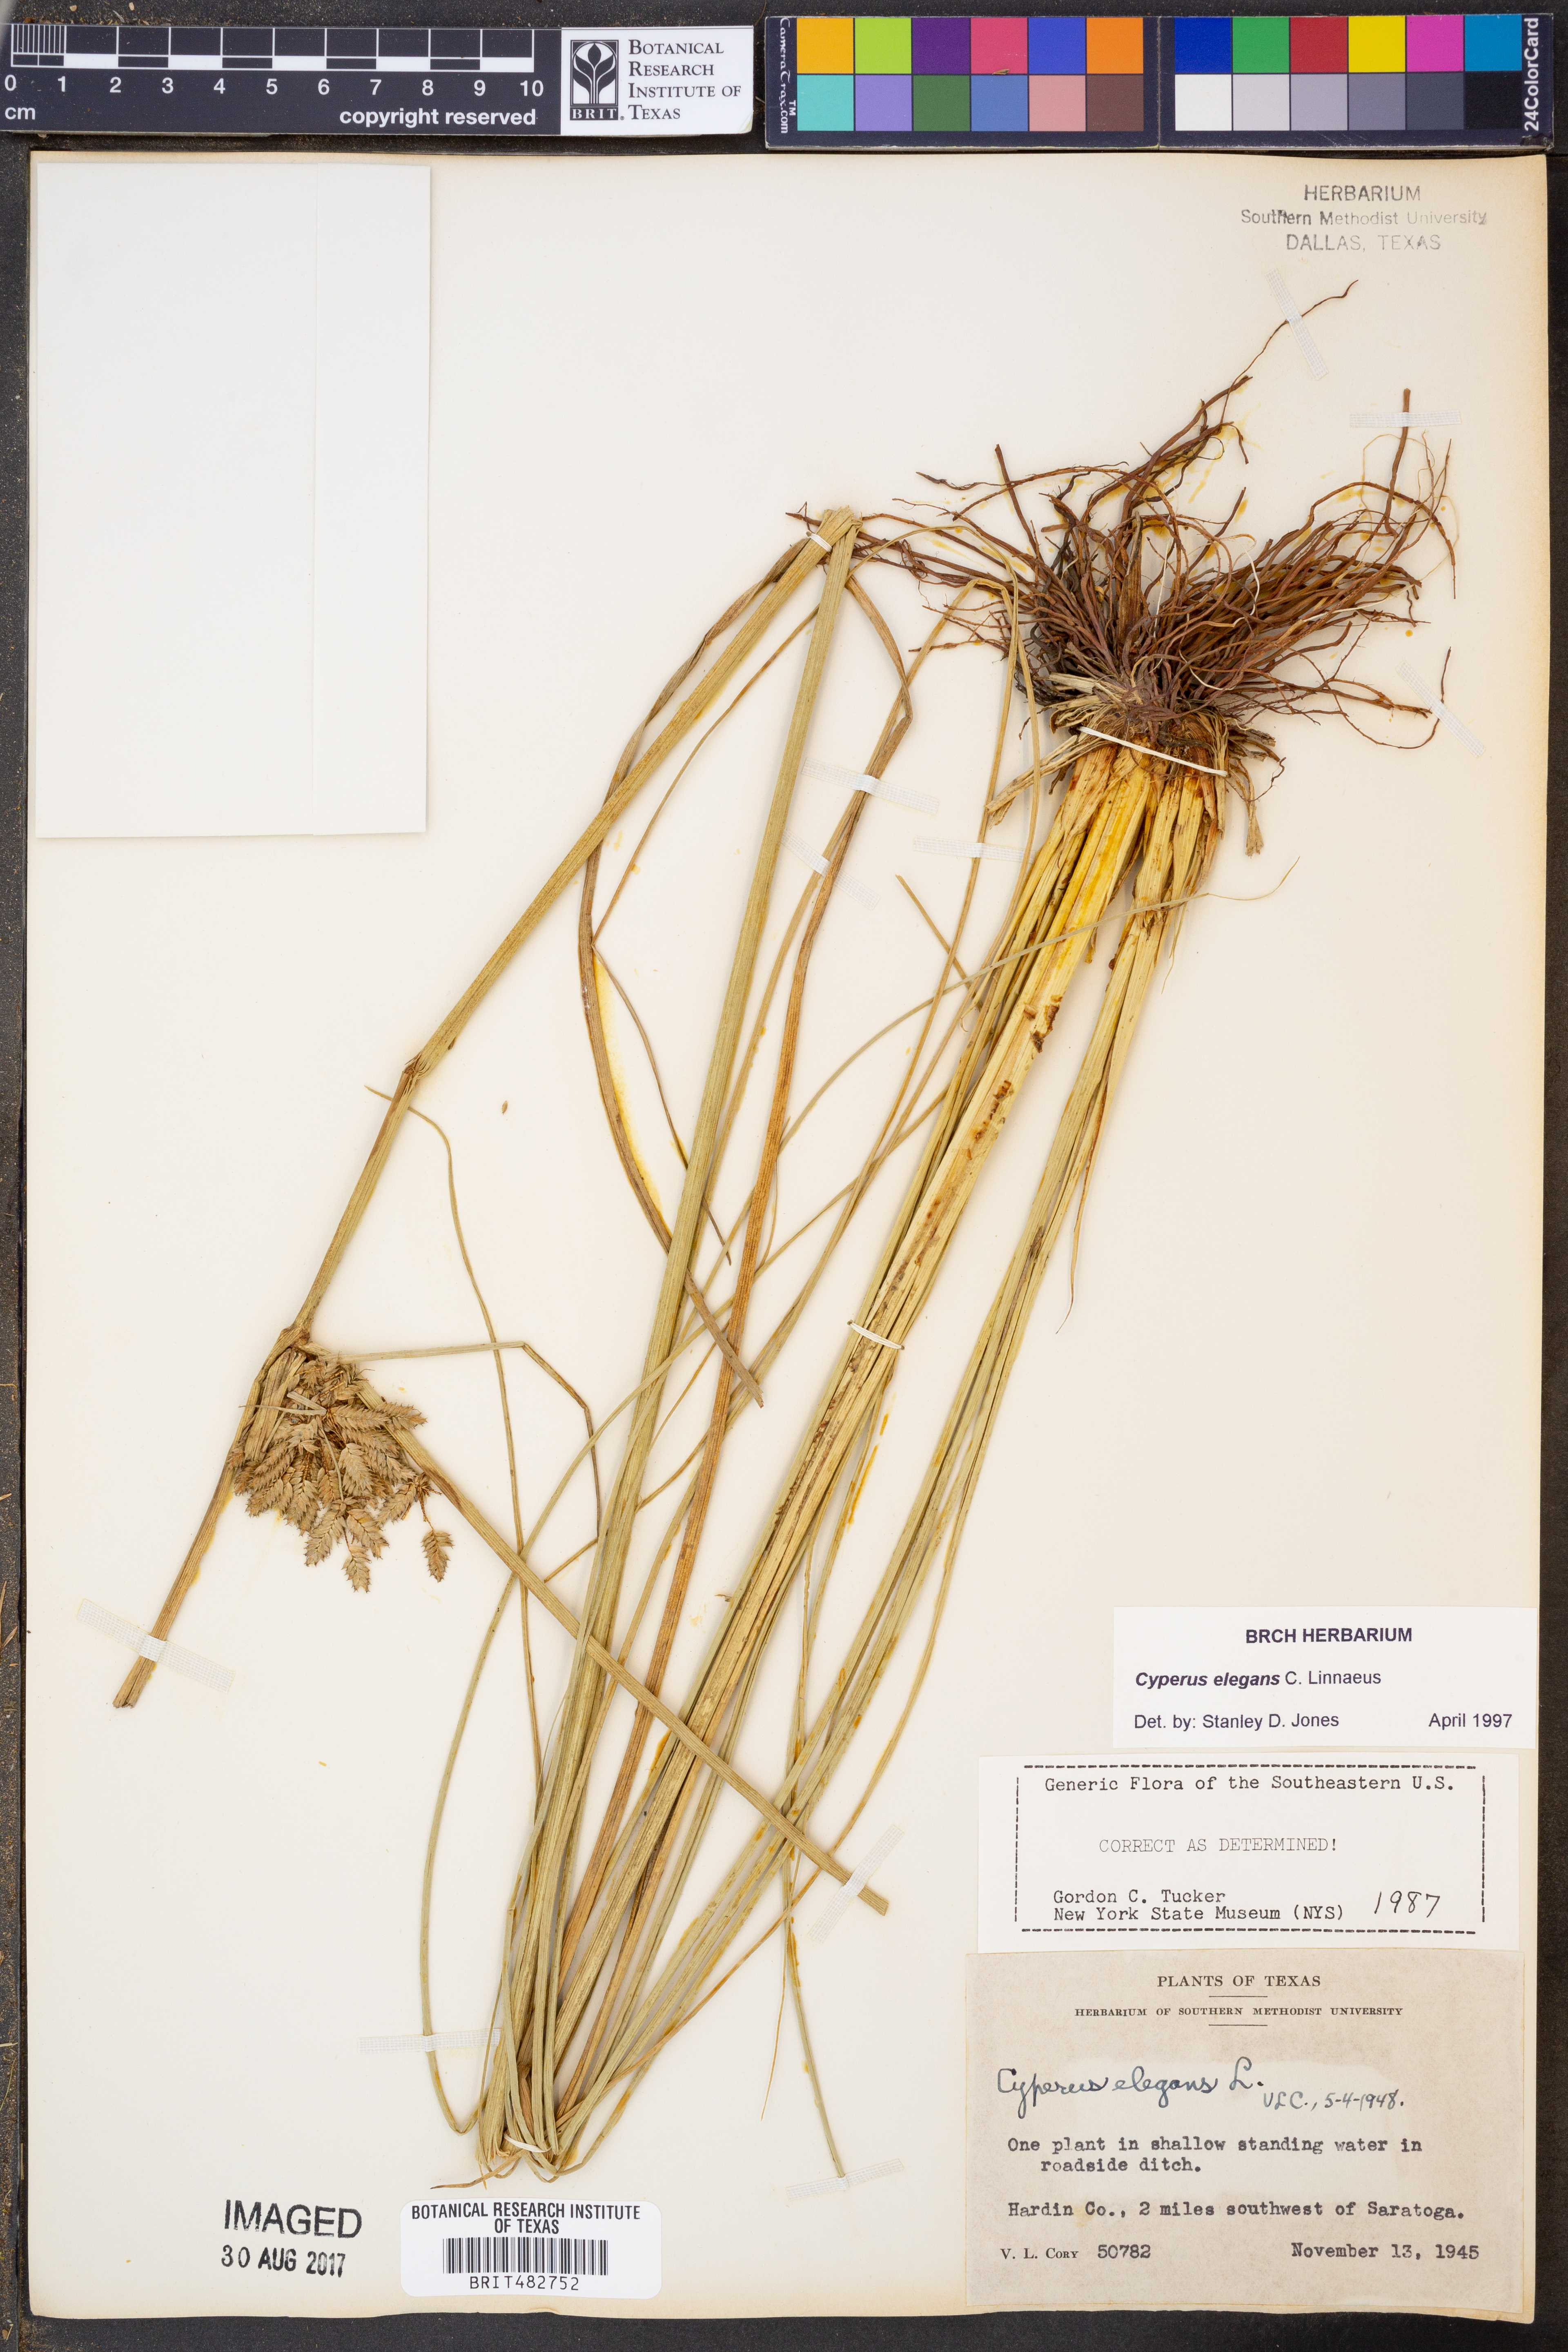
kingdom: Plantae
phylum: Tracheophyta
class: Liliopsida
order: Poales
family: Cyperaceae
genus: Cyperus
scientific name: Cyperus elegans
